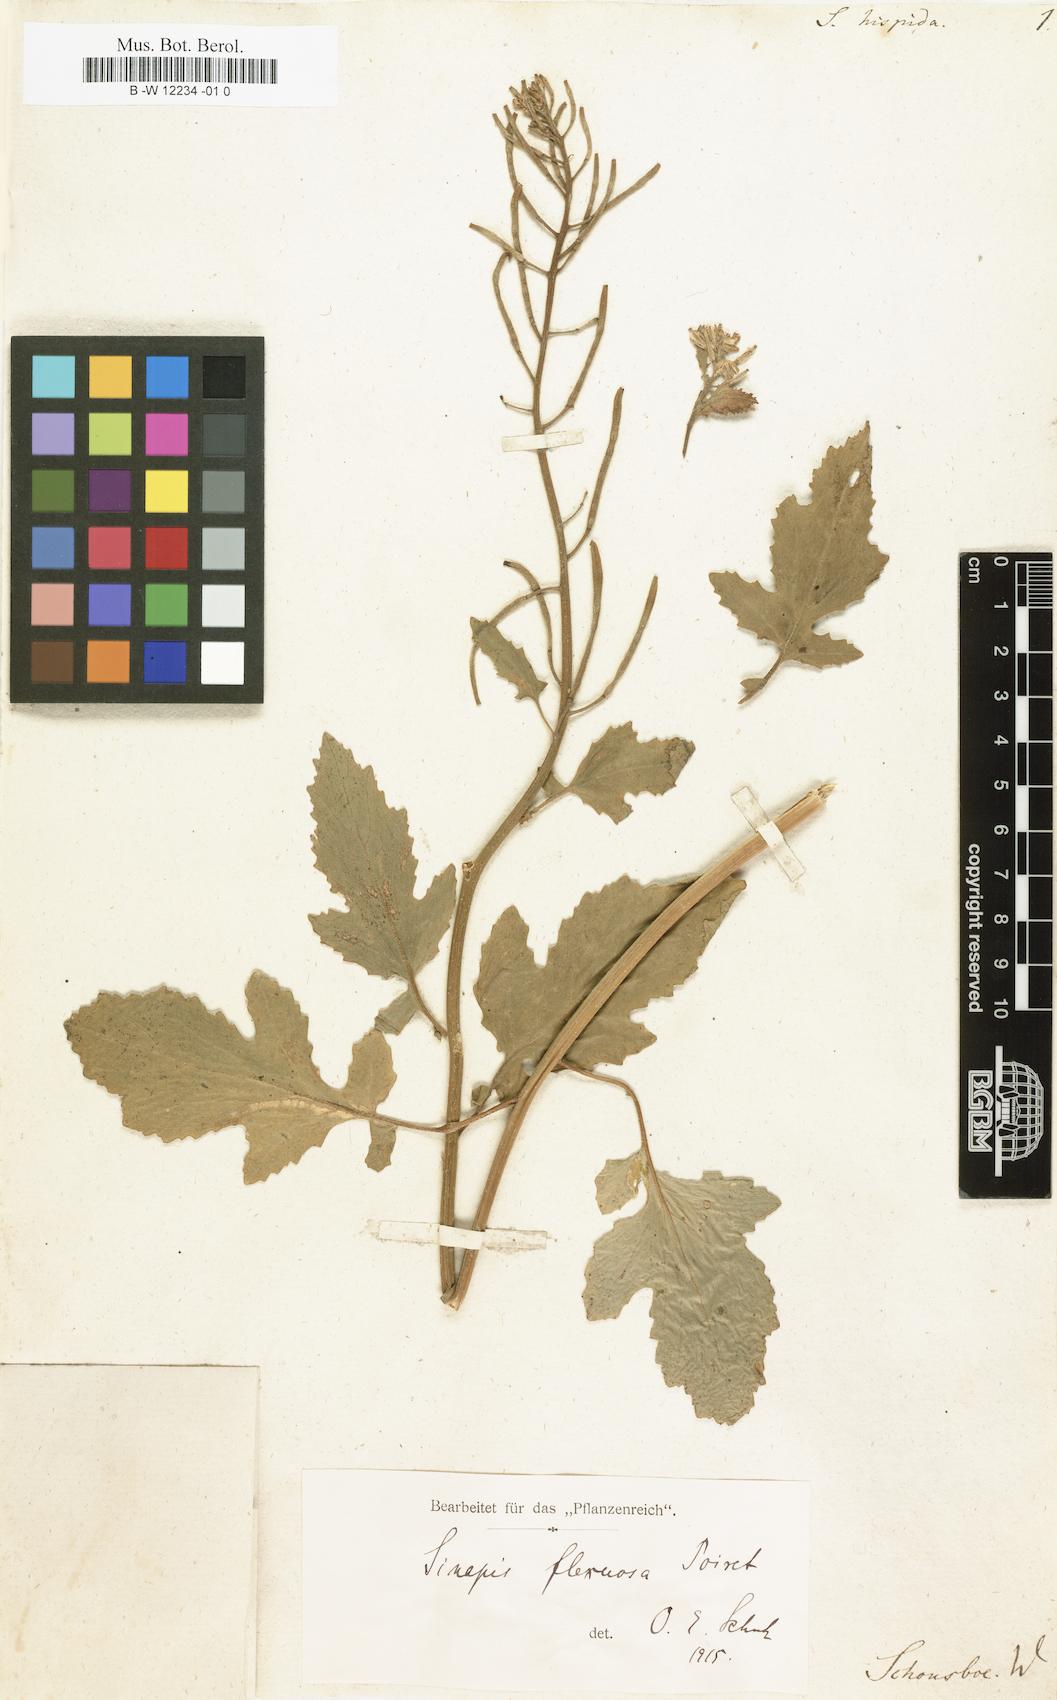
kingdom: Plantae
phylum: Tracheophyta
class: Magnoliopsida
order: Brassicales
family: Brassicaceae
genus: Sinapis
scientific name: Sinapis
